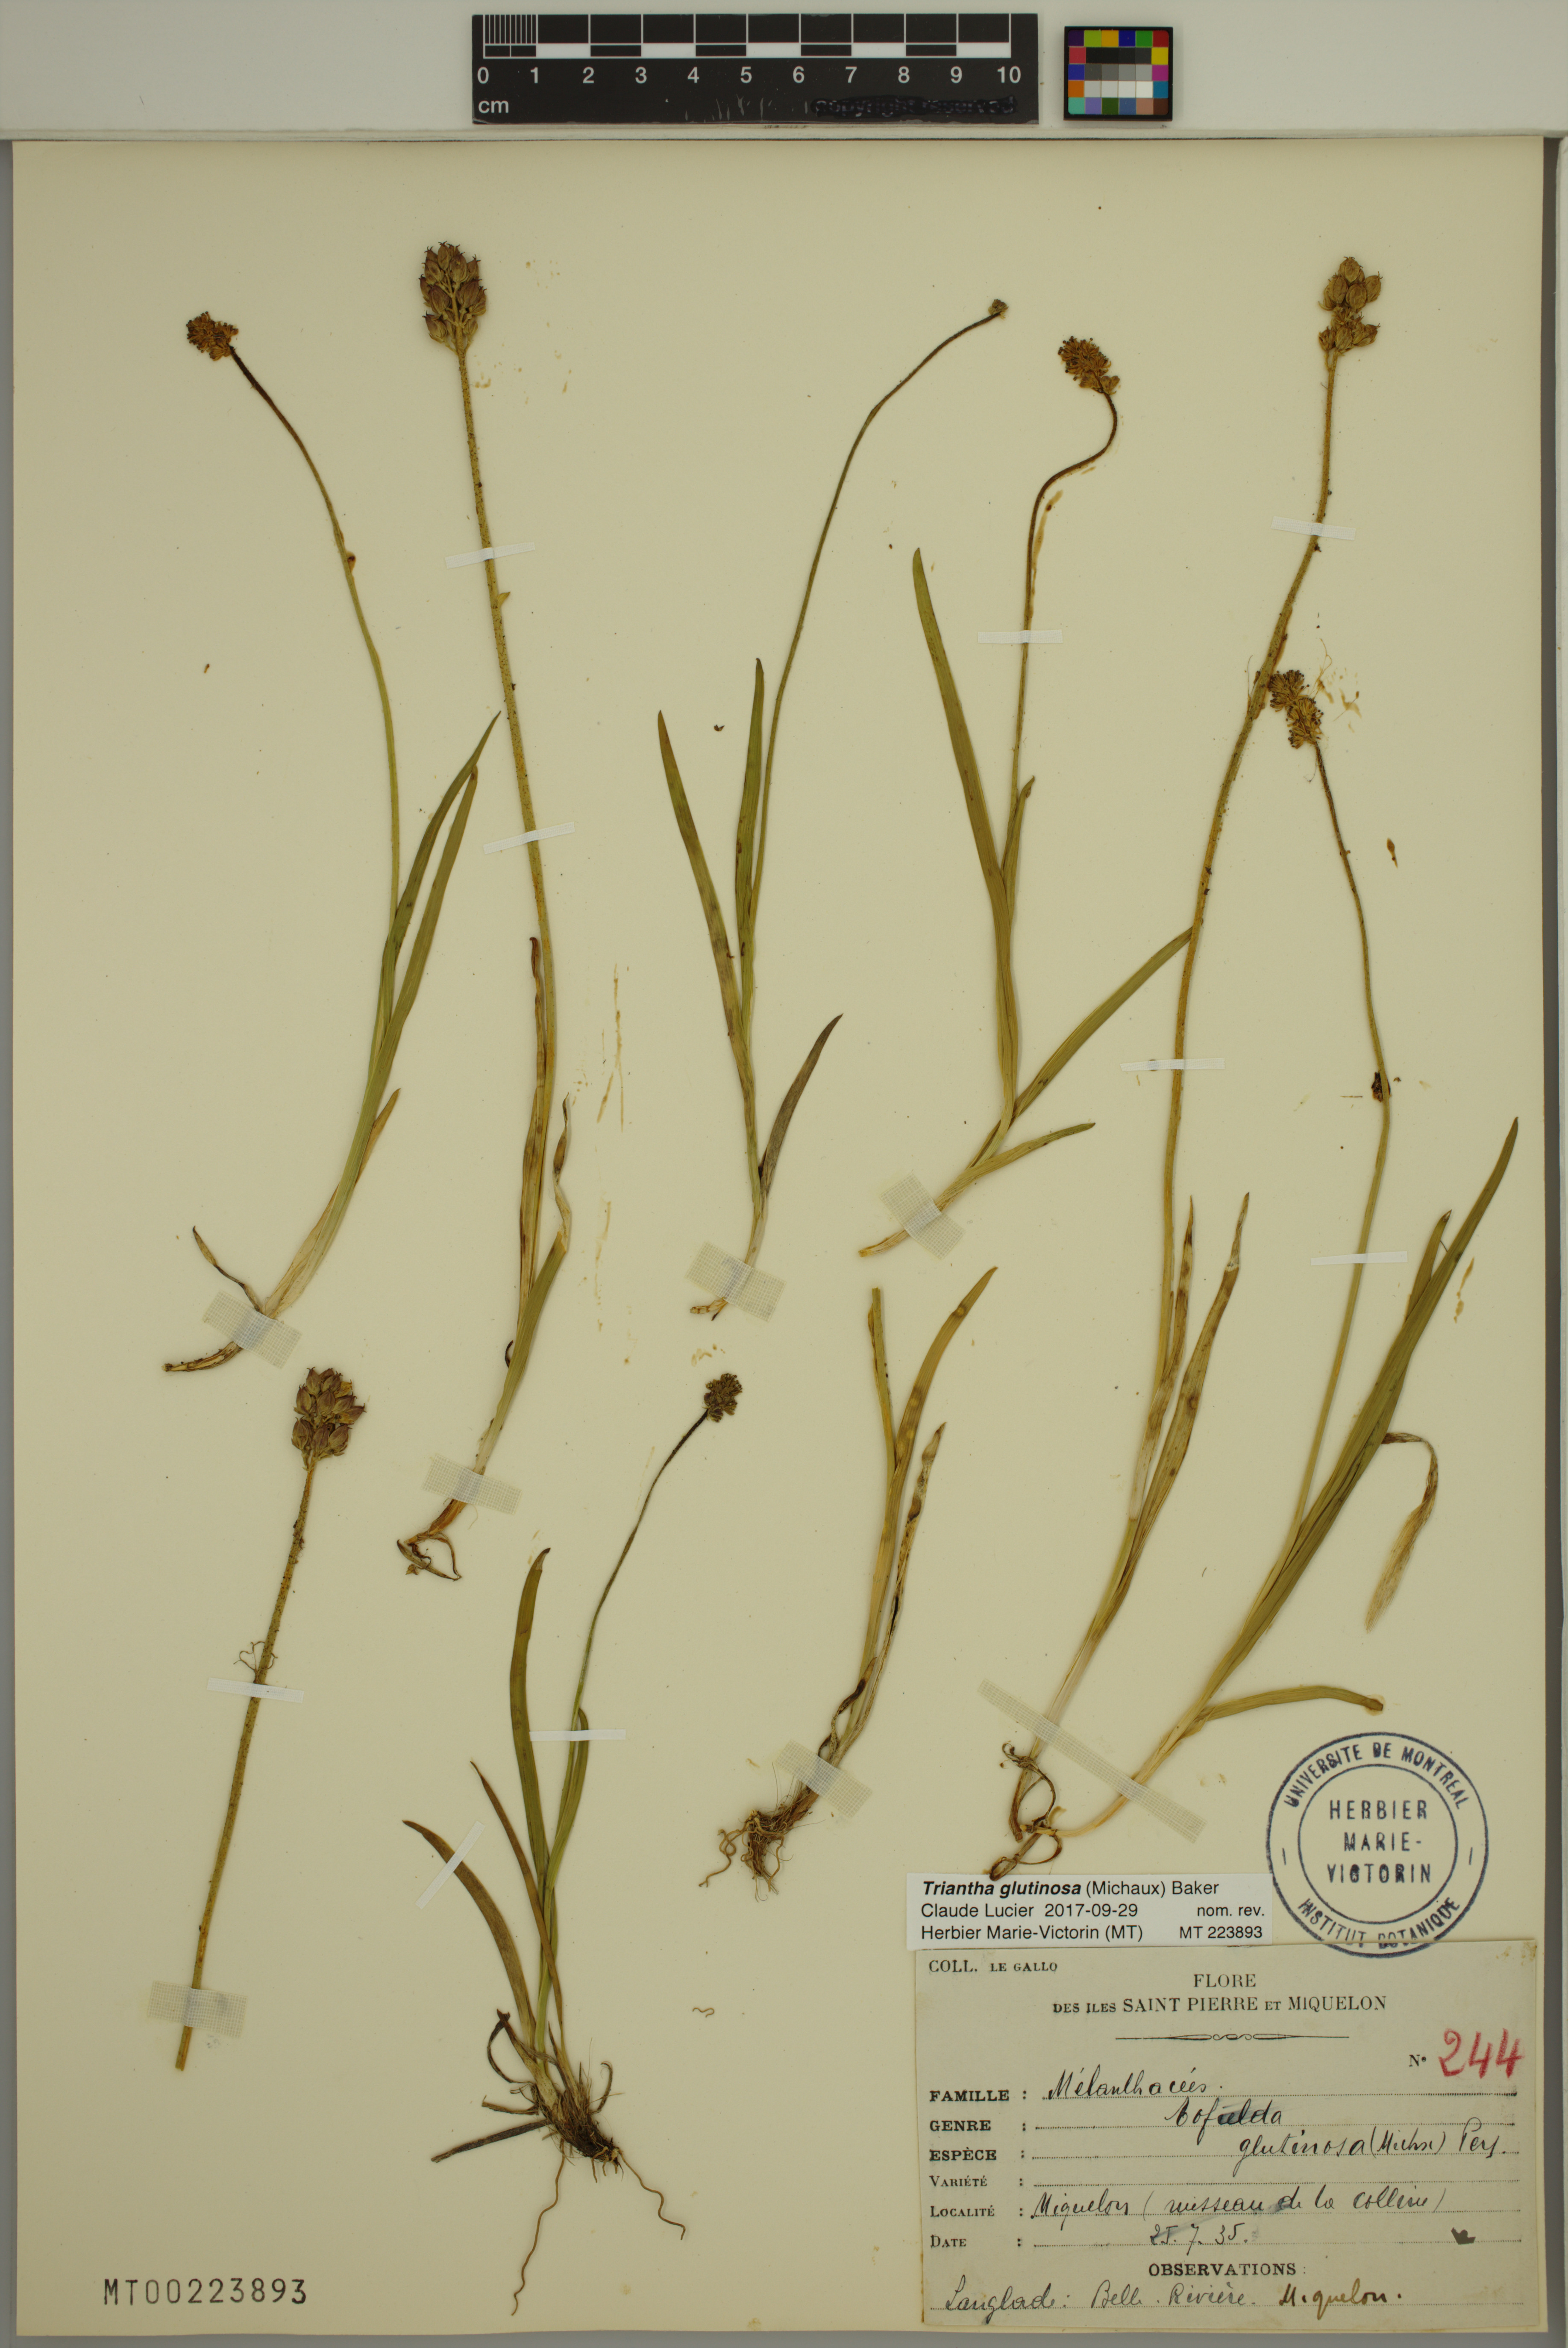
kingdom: Plantae
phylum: Tracheophyta
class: Liliopsida
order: Alismatales
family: Tofieldiaceae
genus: Triantha
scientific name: Triantha glutinosa
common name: Glutinous tofieldia
